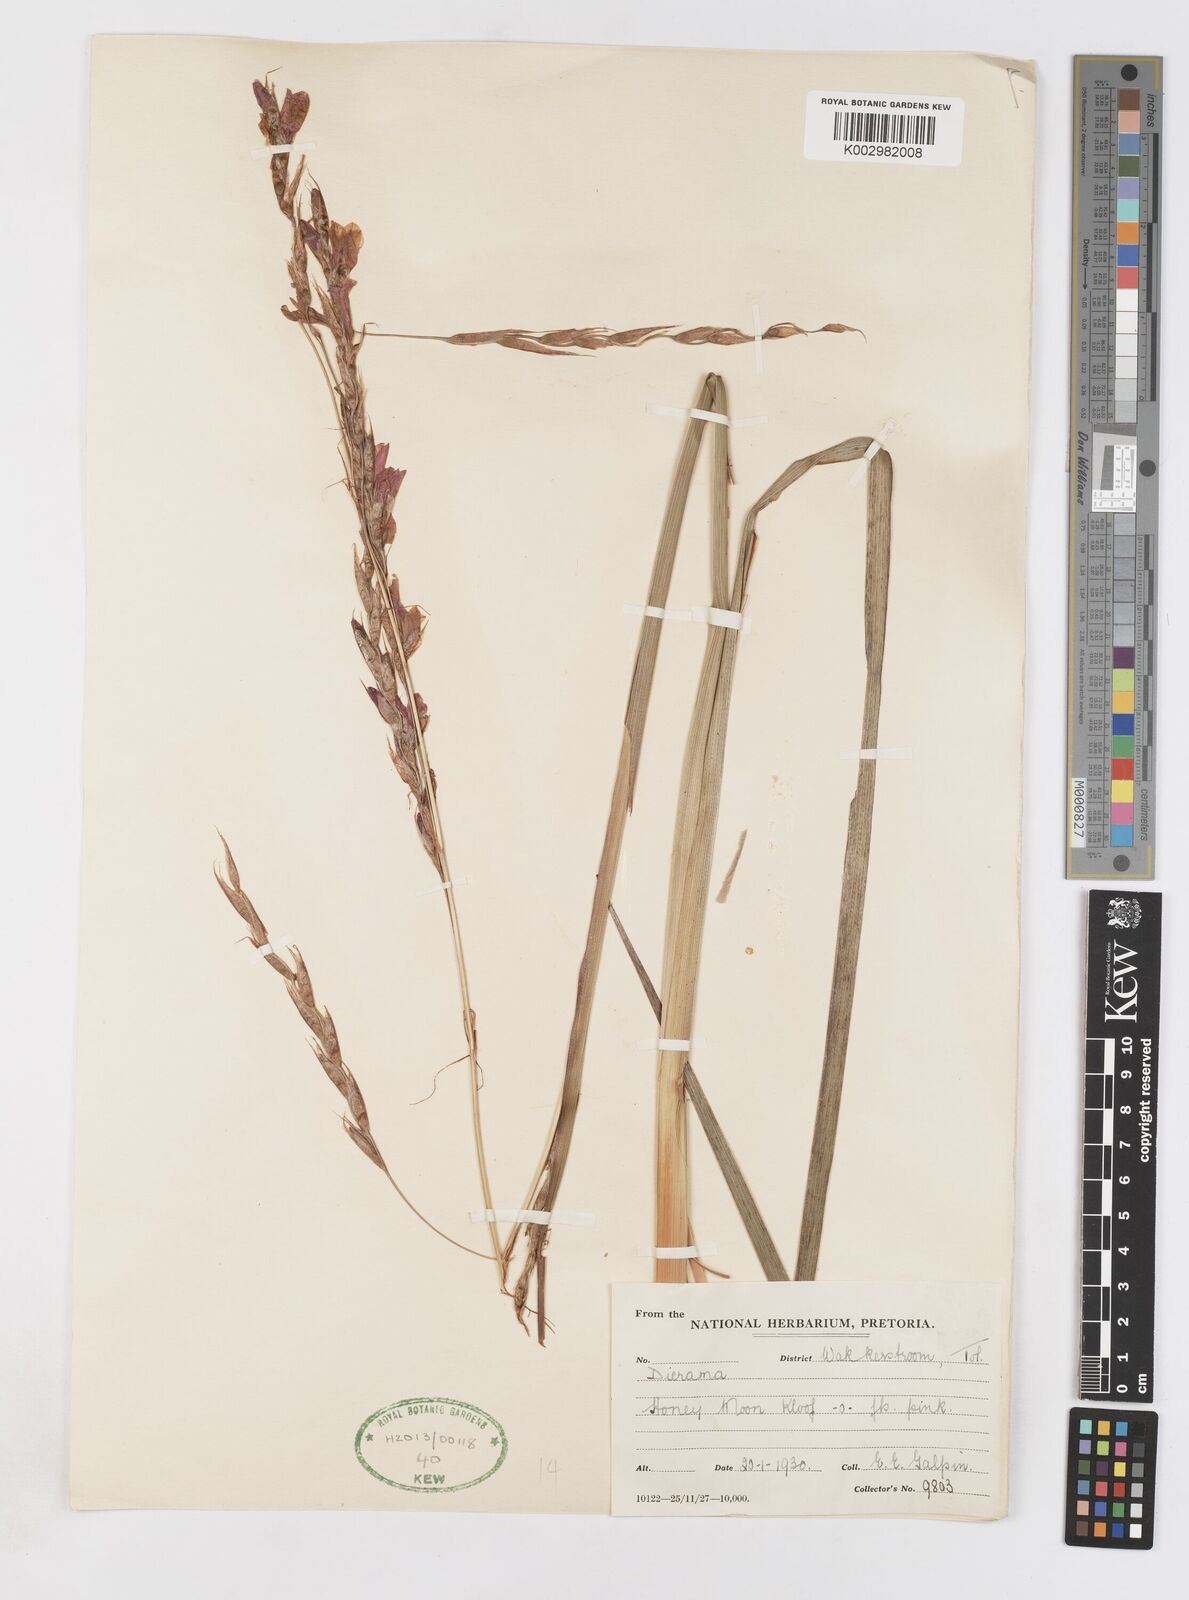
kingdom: Plantae
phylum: Tracheophyta
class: Liliopsida
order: Asparagales
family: Iridaceae
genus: Dierama
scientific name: Dierama
